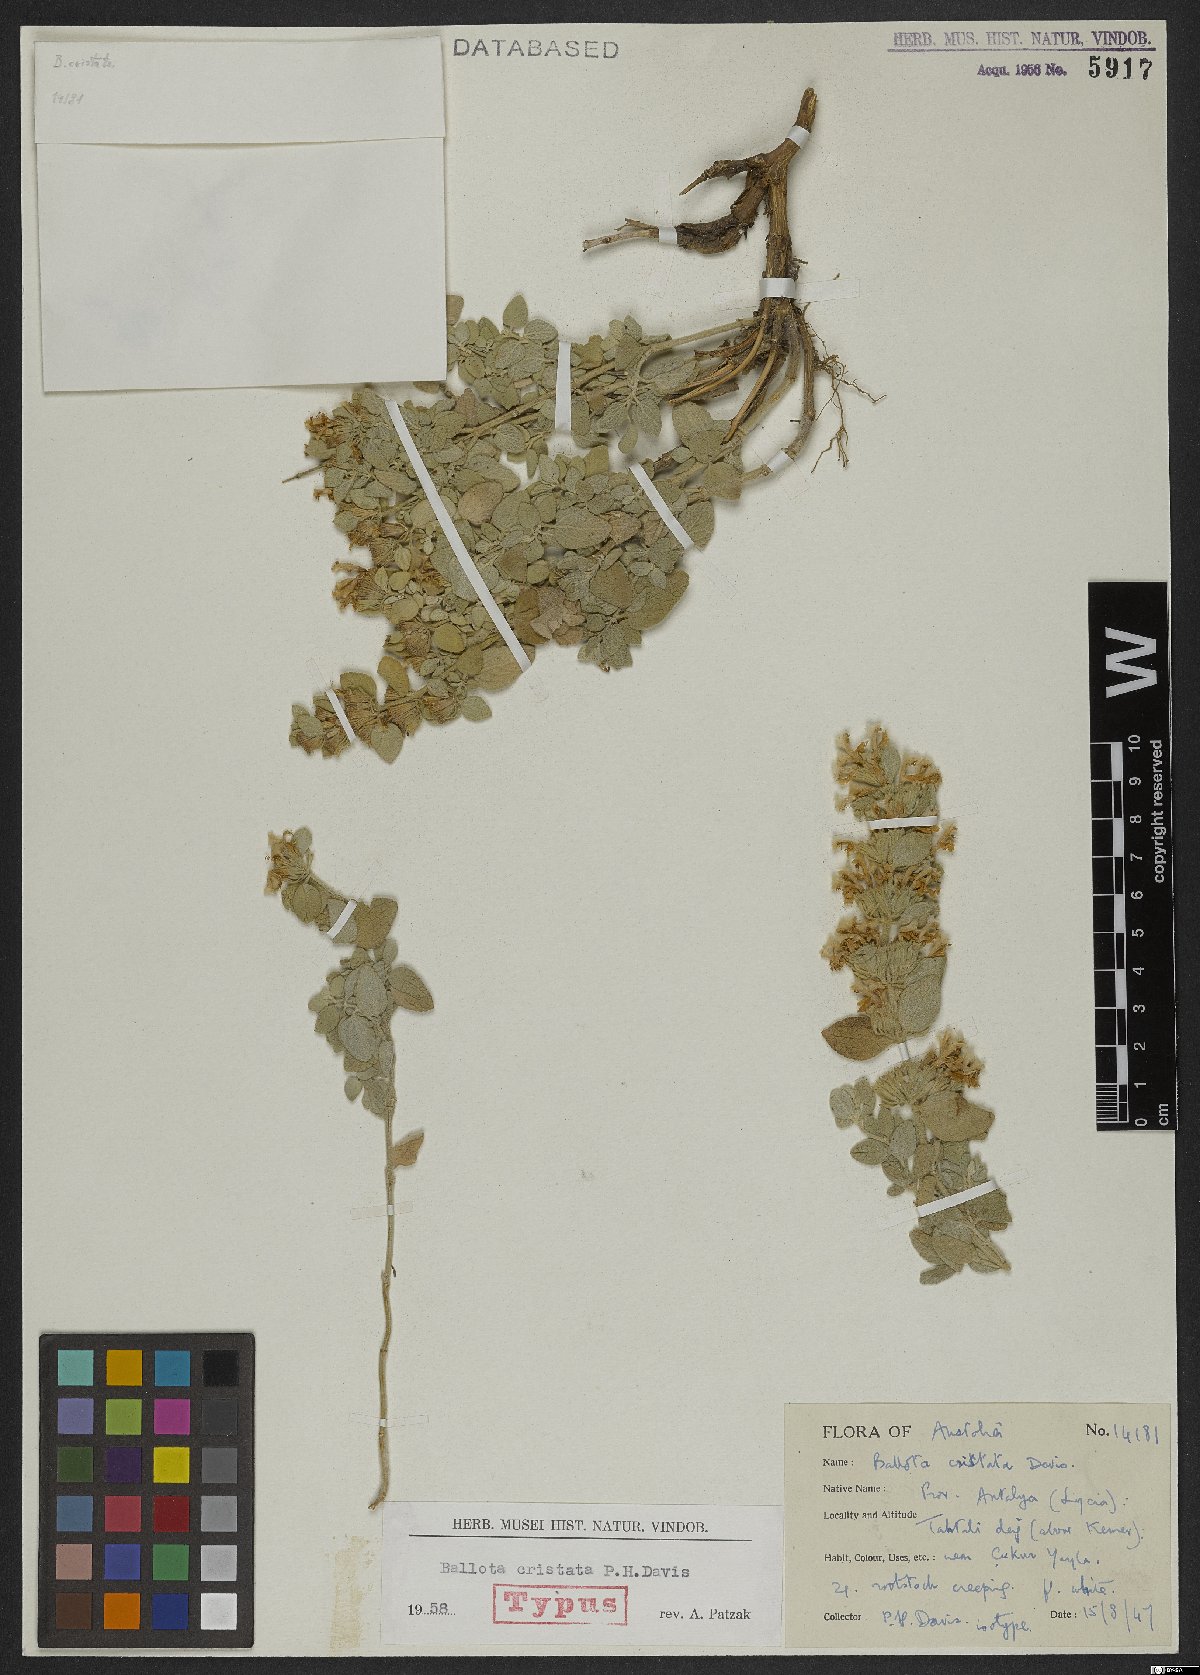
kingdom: Plantae
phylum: Tracheophyta
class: Magnoliopsida
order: Lamiales
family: Lamiaceae
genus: Ballota
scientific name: Ballota cristata
